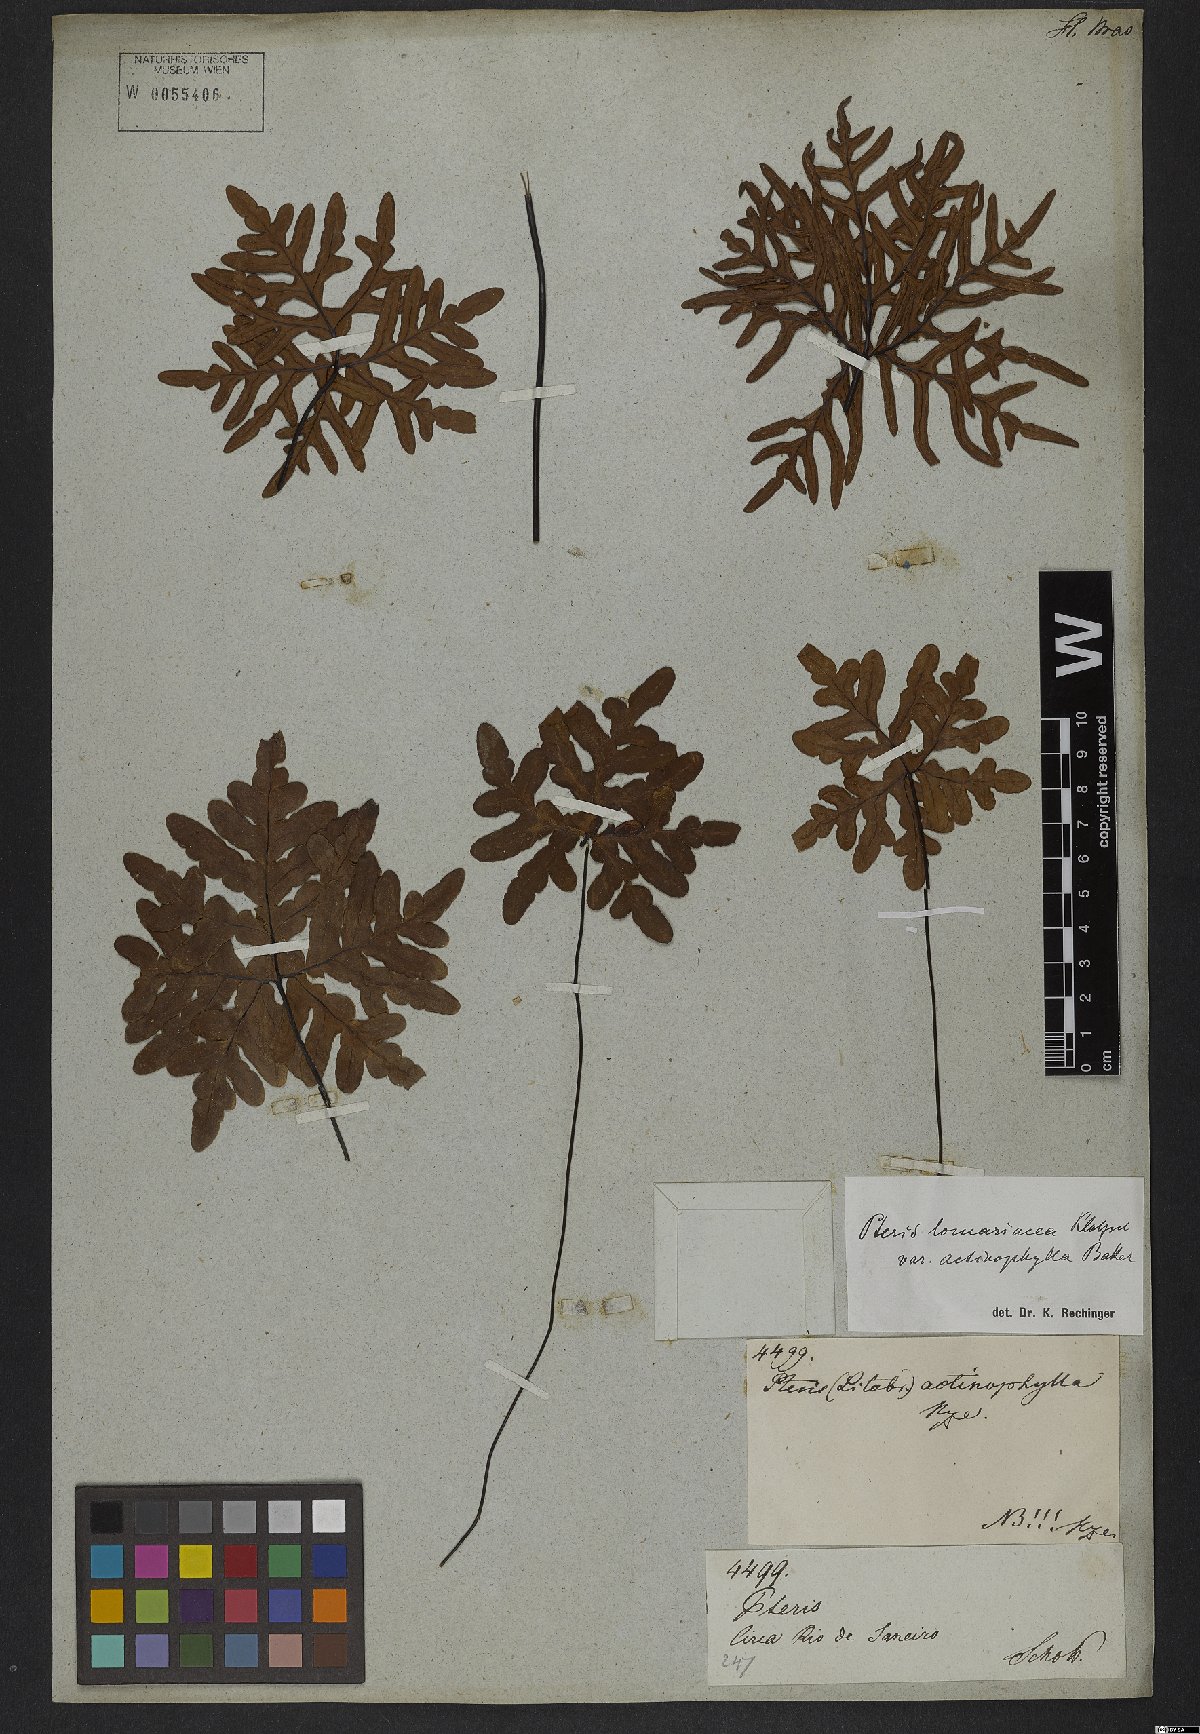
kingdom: Plantae
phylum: Tracheophyta
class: Polypodiopsida
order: Polypodiales
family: Pteridaceae
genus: Lytoneuron
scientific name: Lytoneuron lomariaceum
